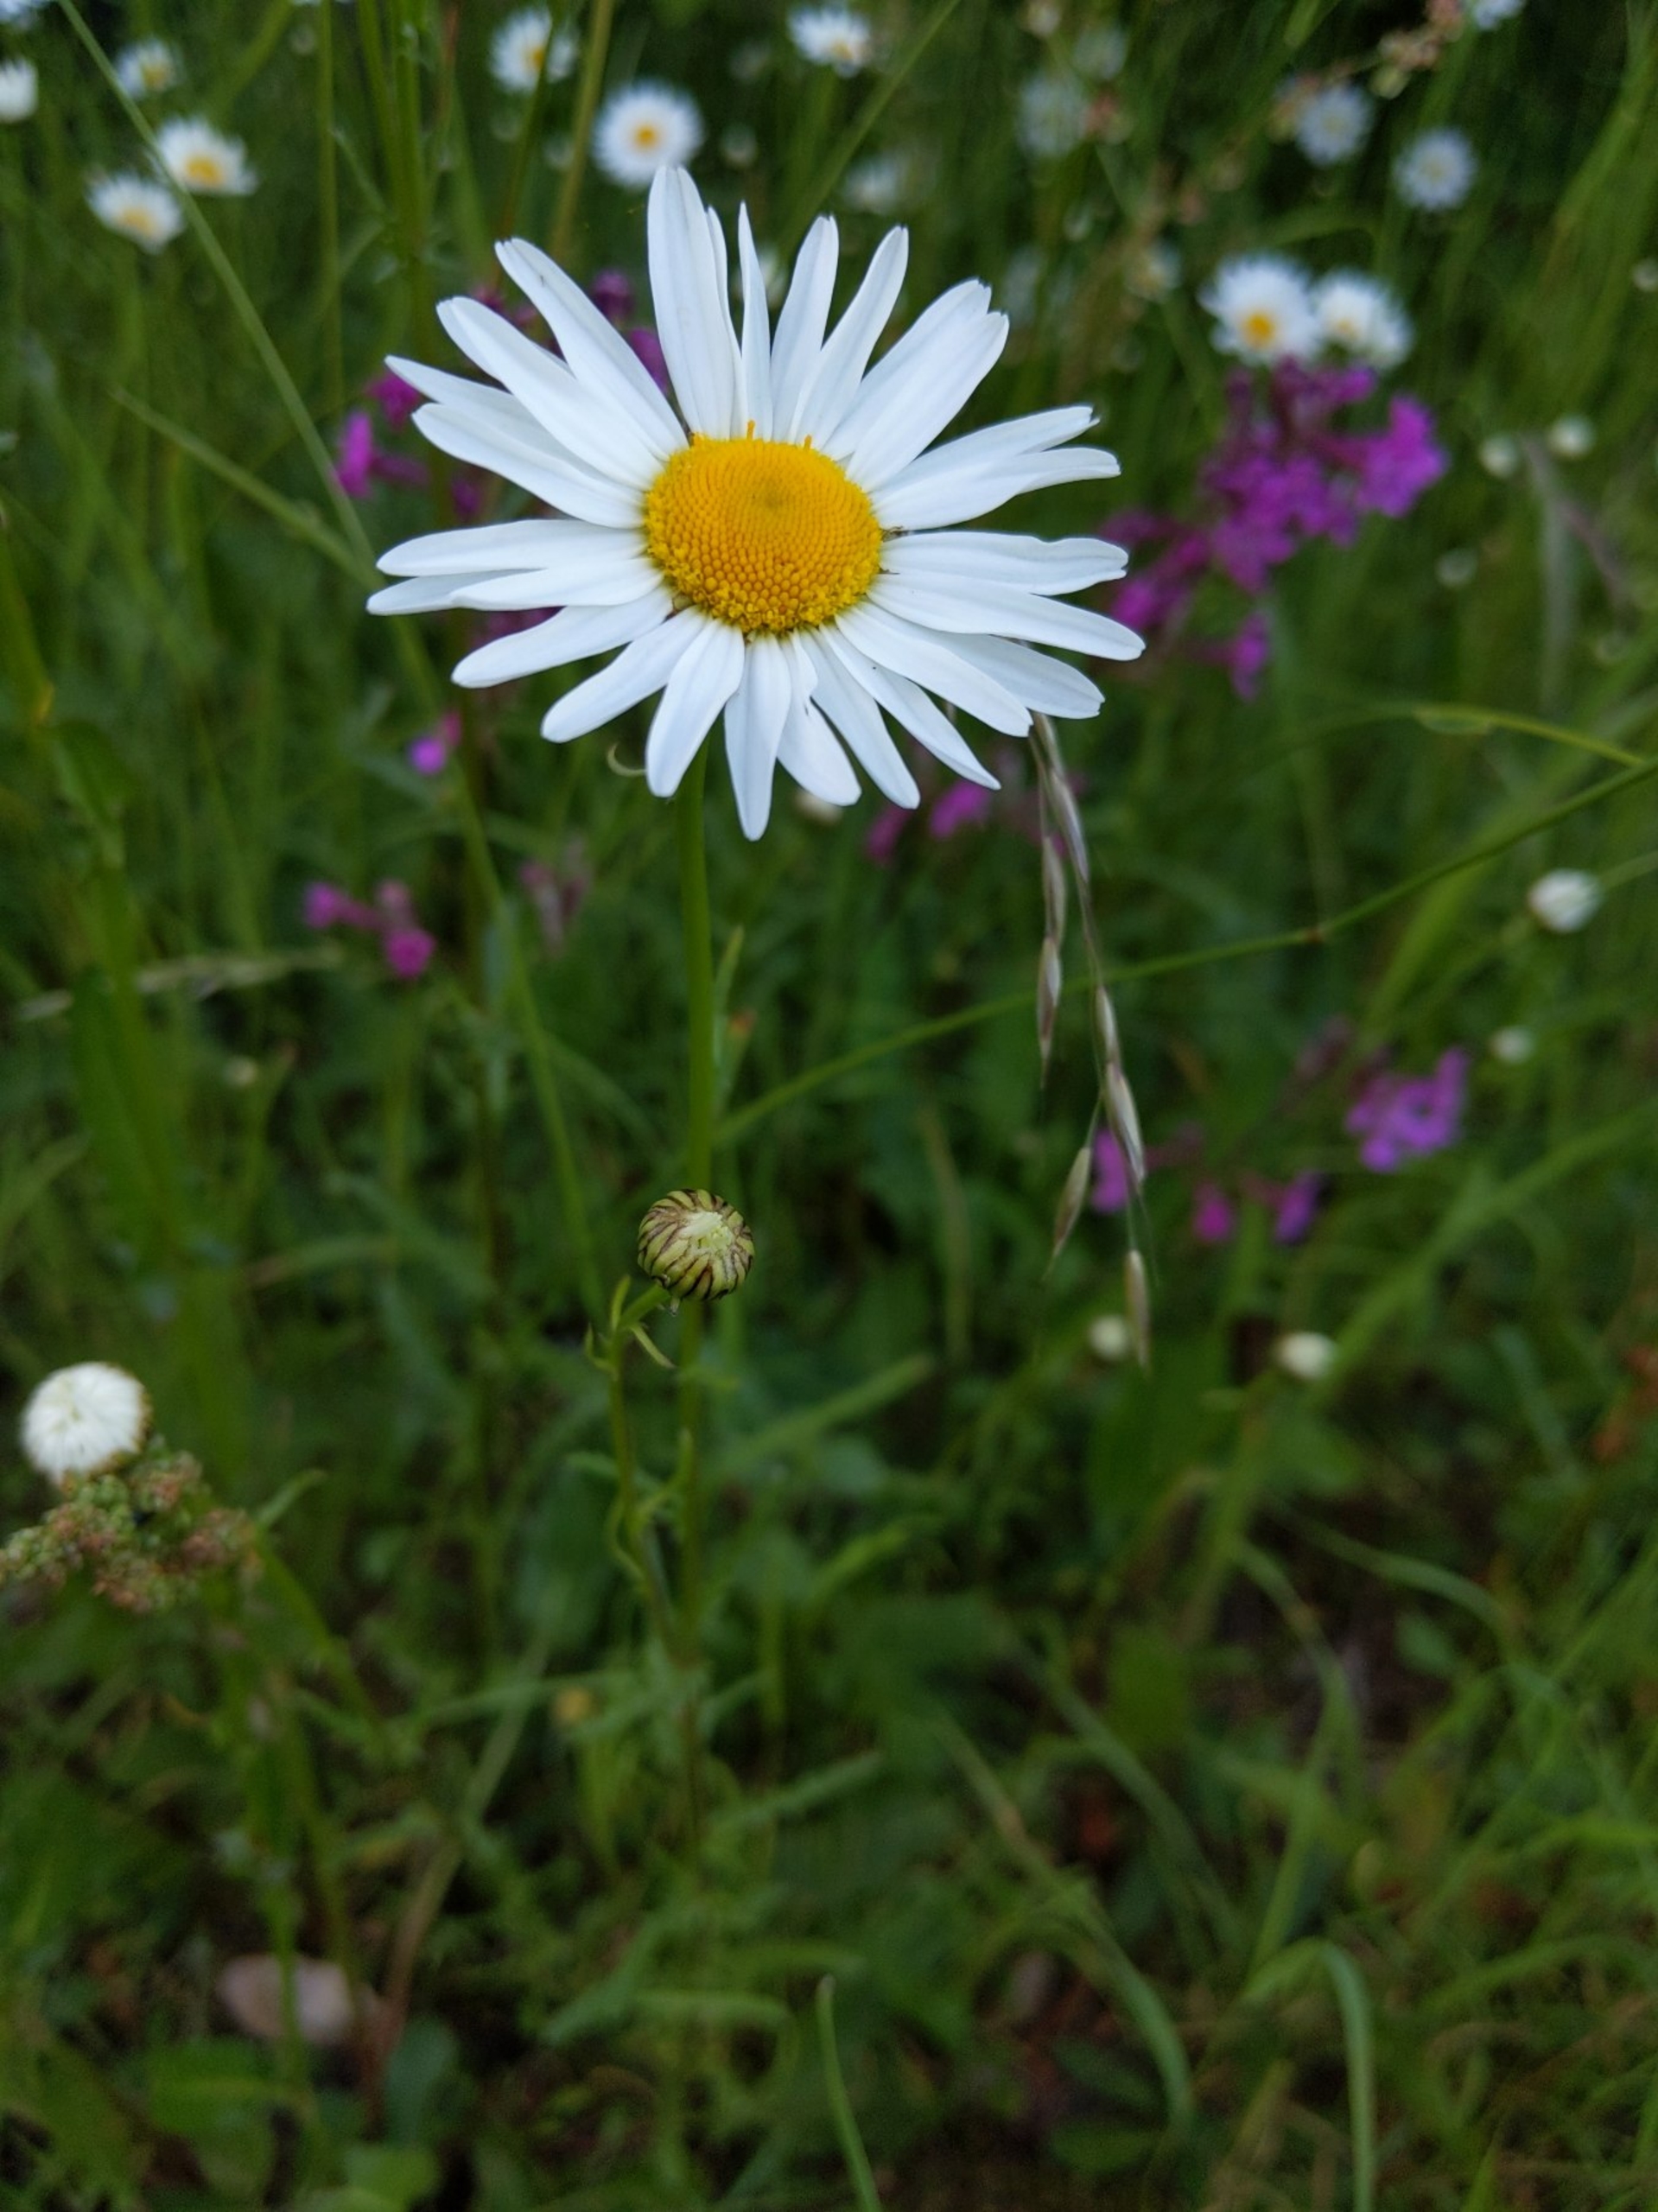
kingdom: Plantae
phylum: Tracheophyta
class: Magnoliopsida
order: Asterales
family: Asteraceae
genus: Leucanthemum
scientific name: Leucanthemum vulgare
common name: Hvid okseøje
